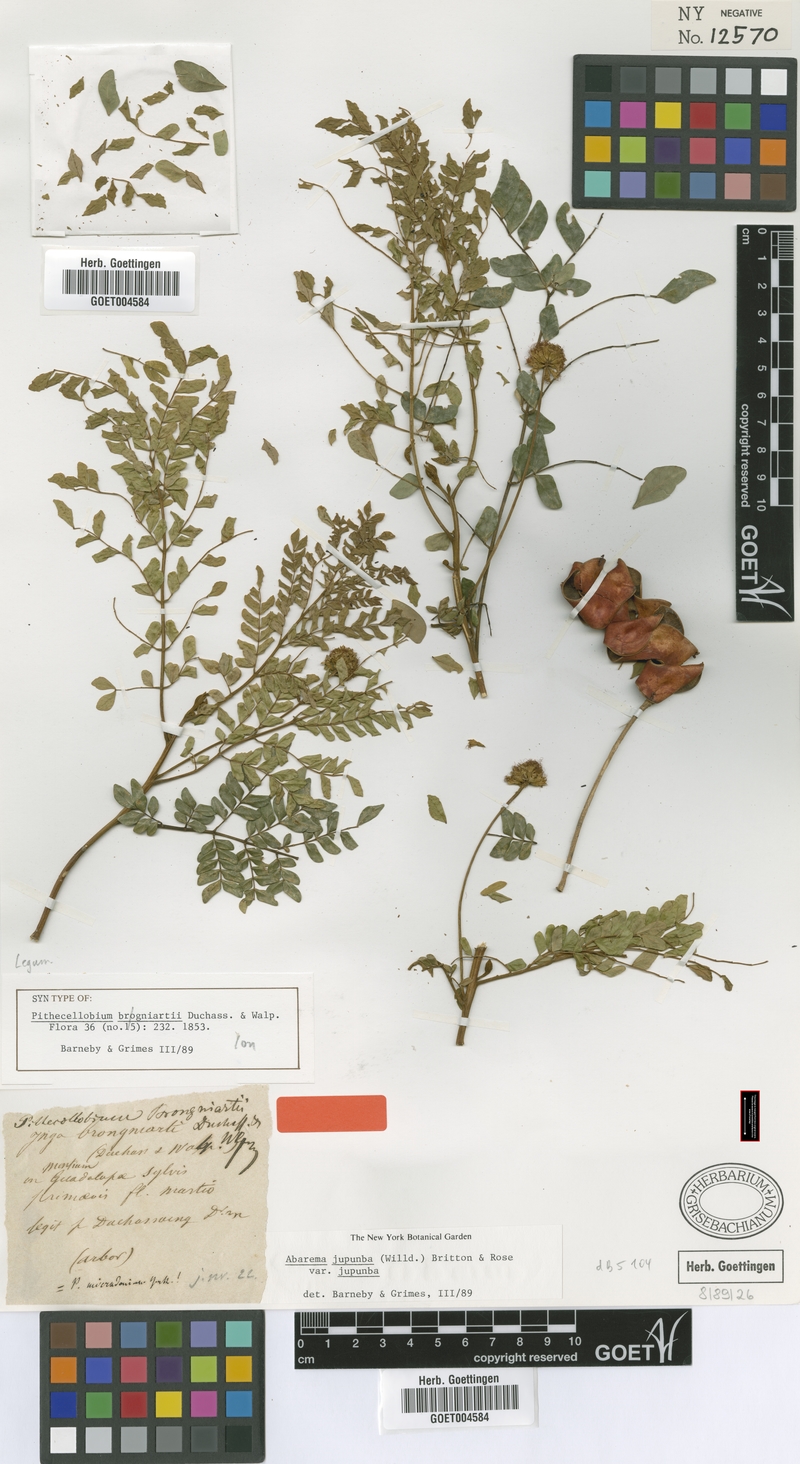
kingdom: Plantae
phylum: Tracheophyta
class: Magnoliopsida
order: Fabales
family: Fabaceae
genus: Jupunba
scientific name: Jupunba trapezifolia
